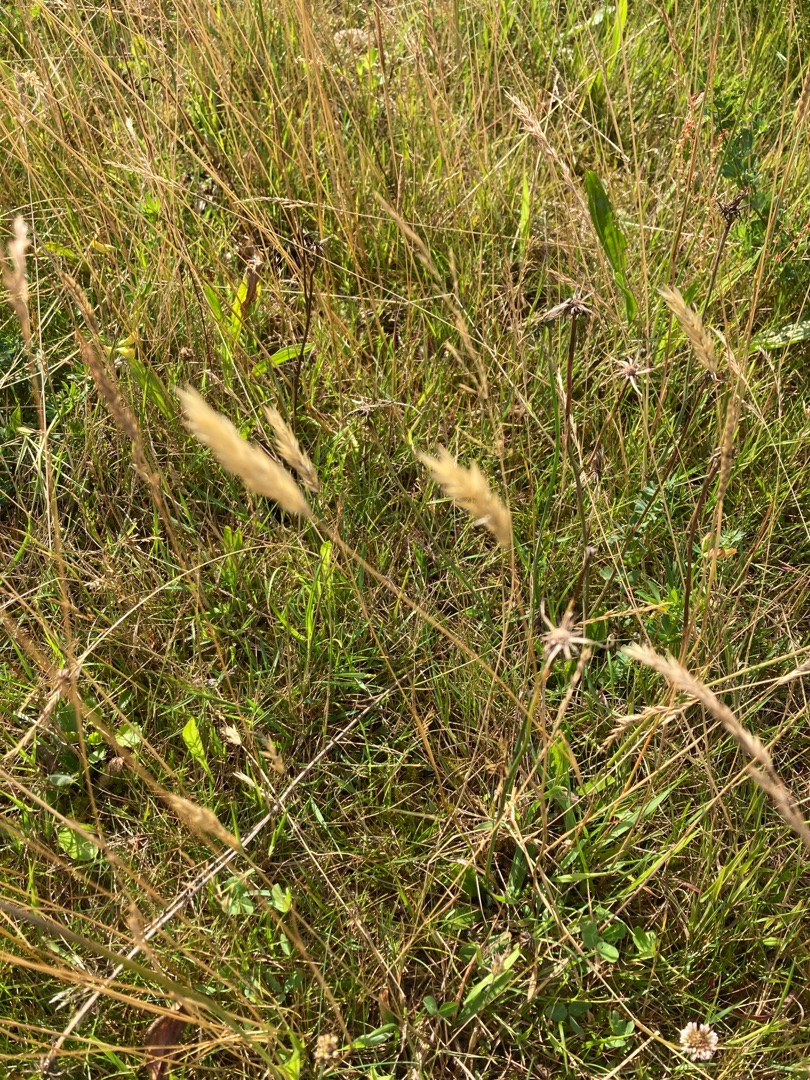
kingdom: Plantae
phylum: Tracheophyta
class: Liliopsida
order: Poales
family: Poaceae
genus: Anthoxanthum
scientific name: Anthoxanthum odoratum
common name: Vellugtende gulaks
